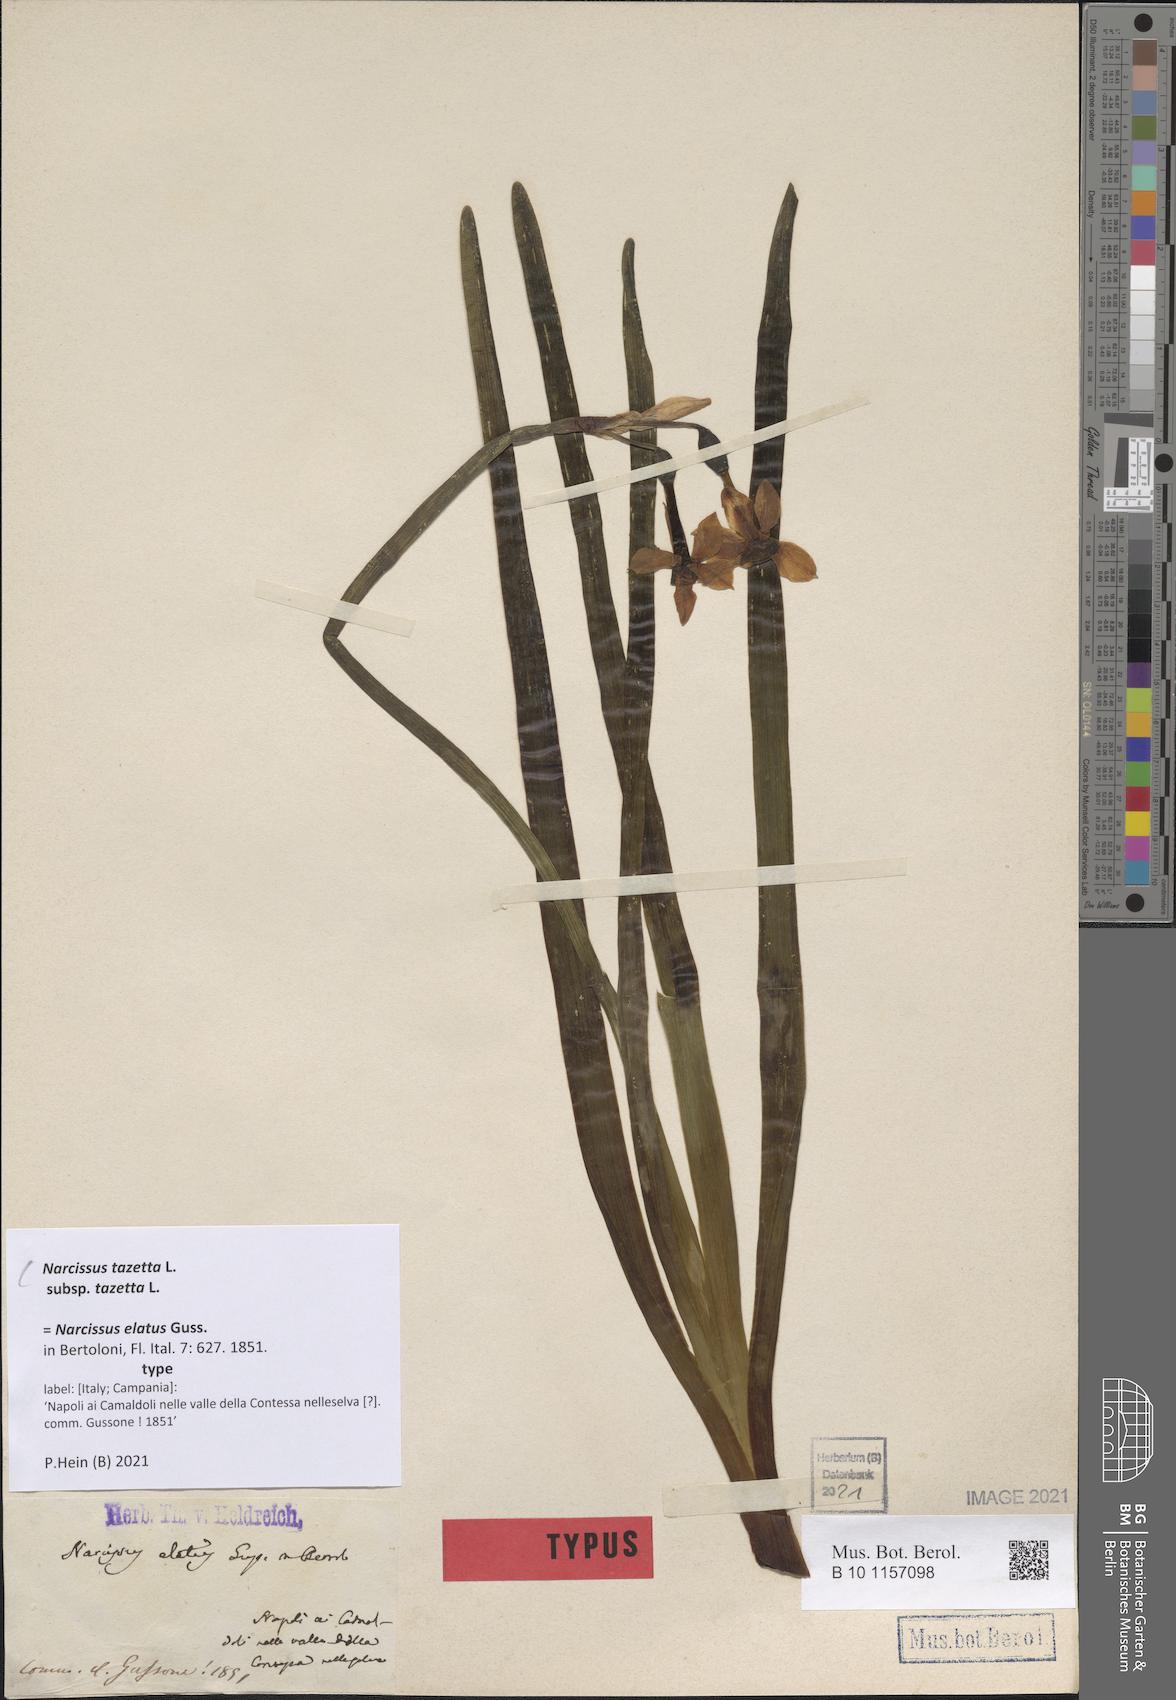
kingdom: Plantae
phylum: Tracheophyta
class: Liliopsida
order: Asparagales
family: Amaryllidaceae
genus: Narcissus
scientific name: Narcissus tazetta
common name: Bunch-flowered daffodil
